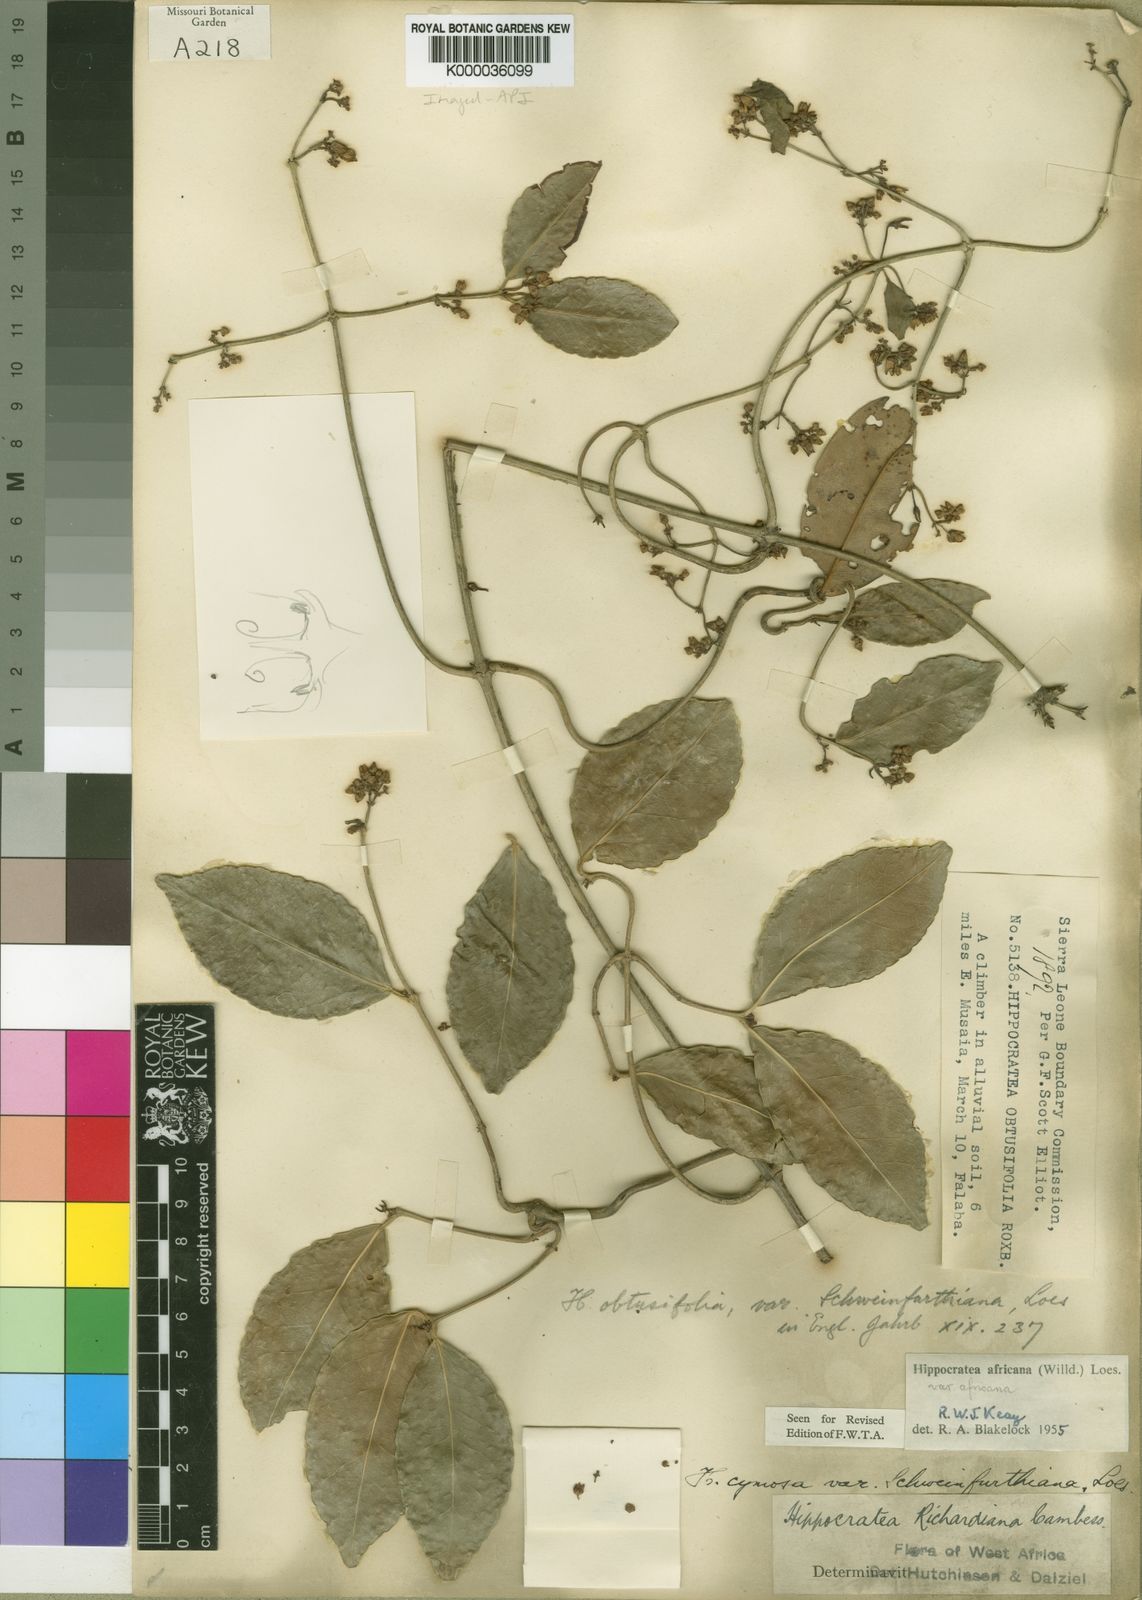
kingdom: Plantae
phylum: Tracheophyta
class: Magnoliopsida
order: Celastrales
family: Celastraceae
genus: Loeseneriella
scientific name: Loeseneriella
